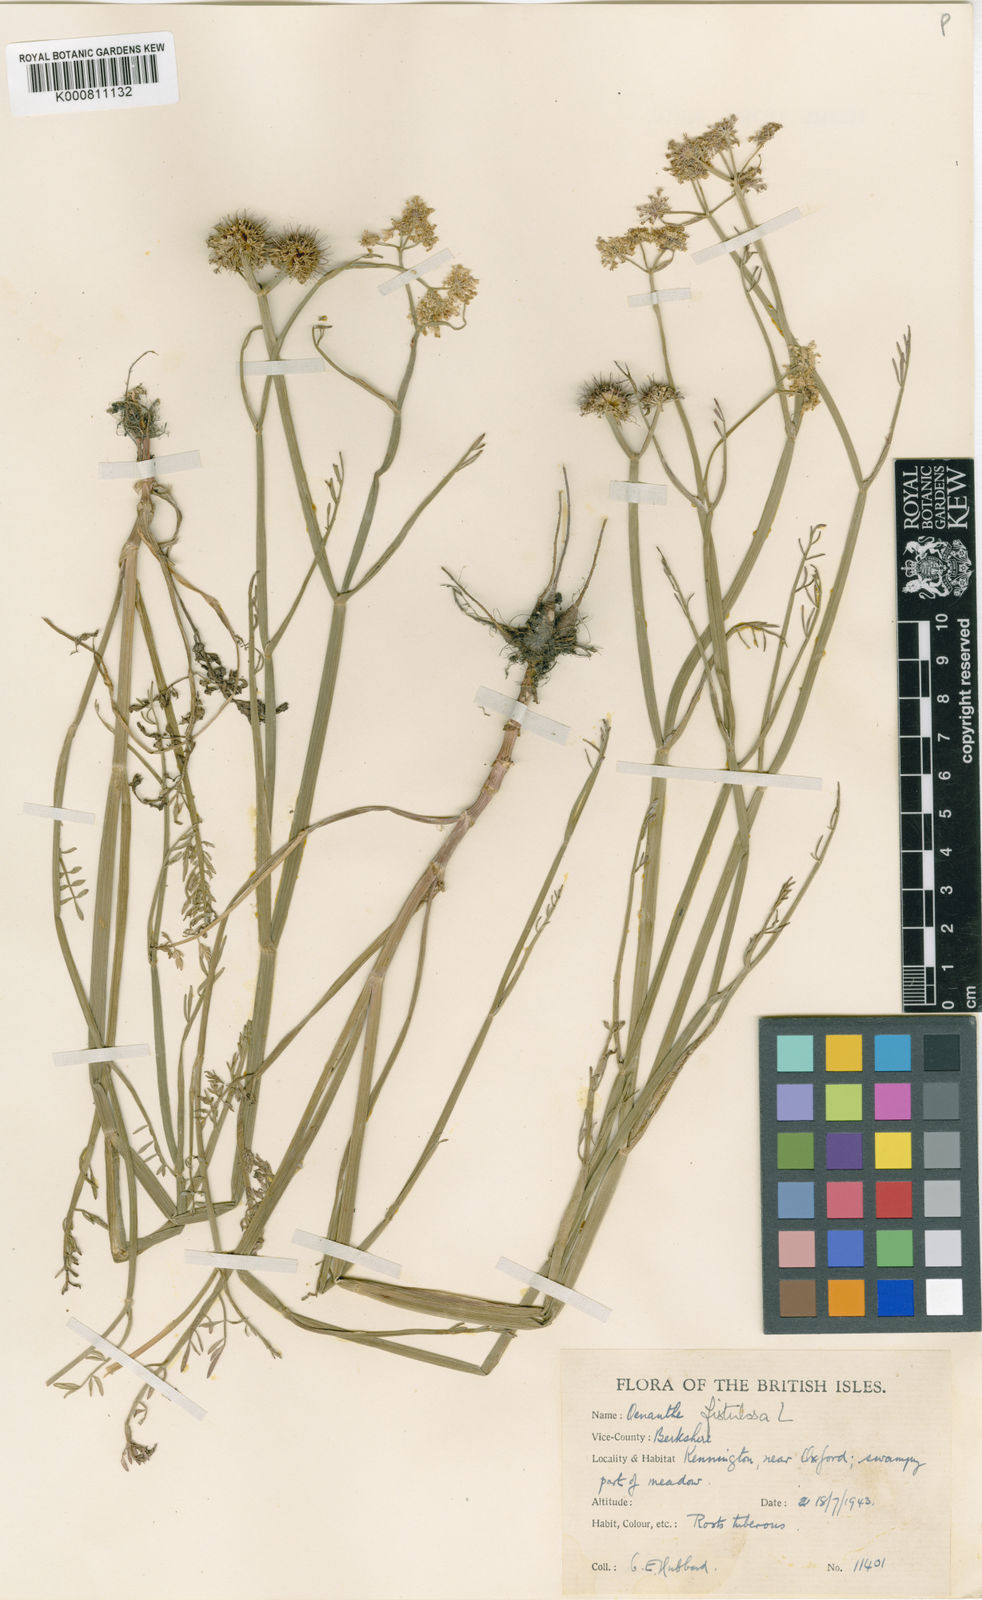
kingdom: Plantae
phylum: Tracheophyta
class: Magnoliopsida
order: Apiales
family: Apiaceae
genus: Oenanthe
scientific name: Oenanthe fistulosa
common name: Tubular water-dropwort
